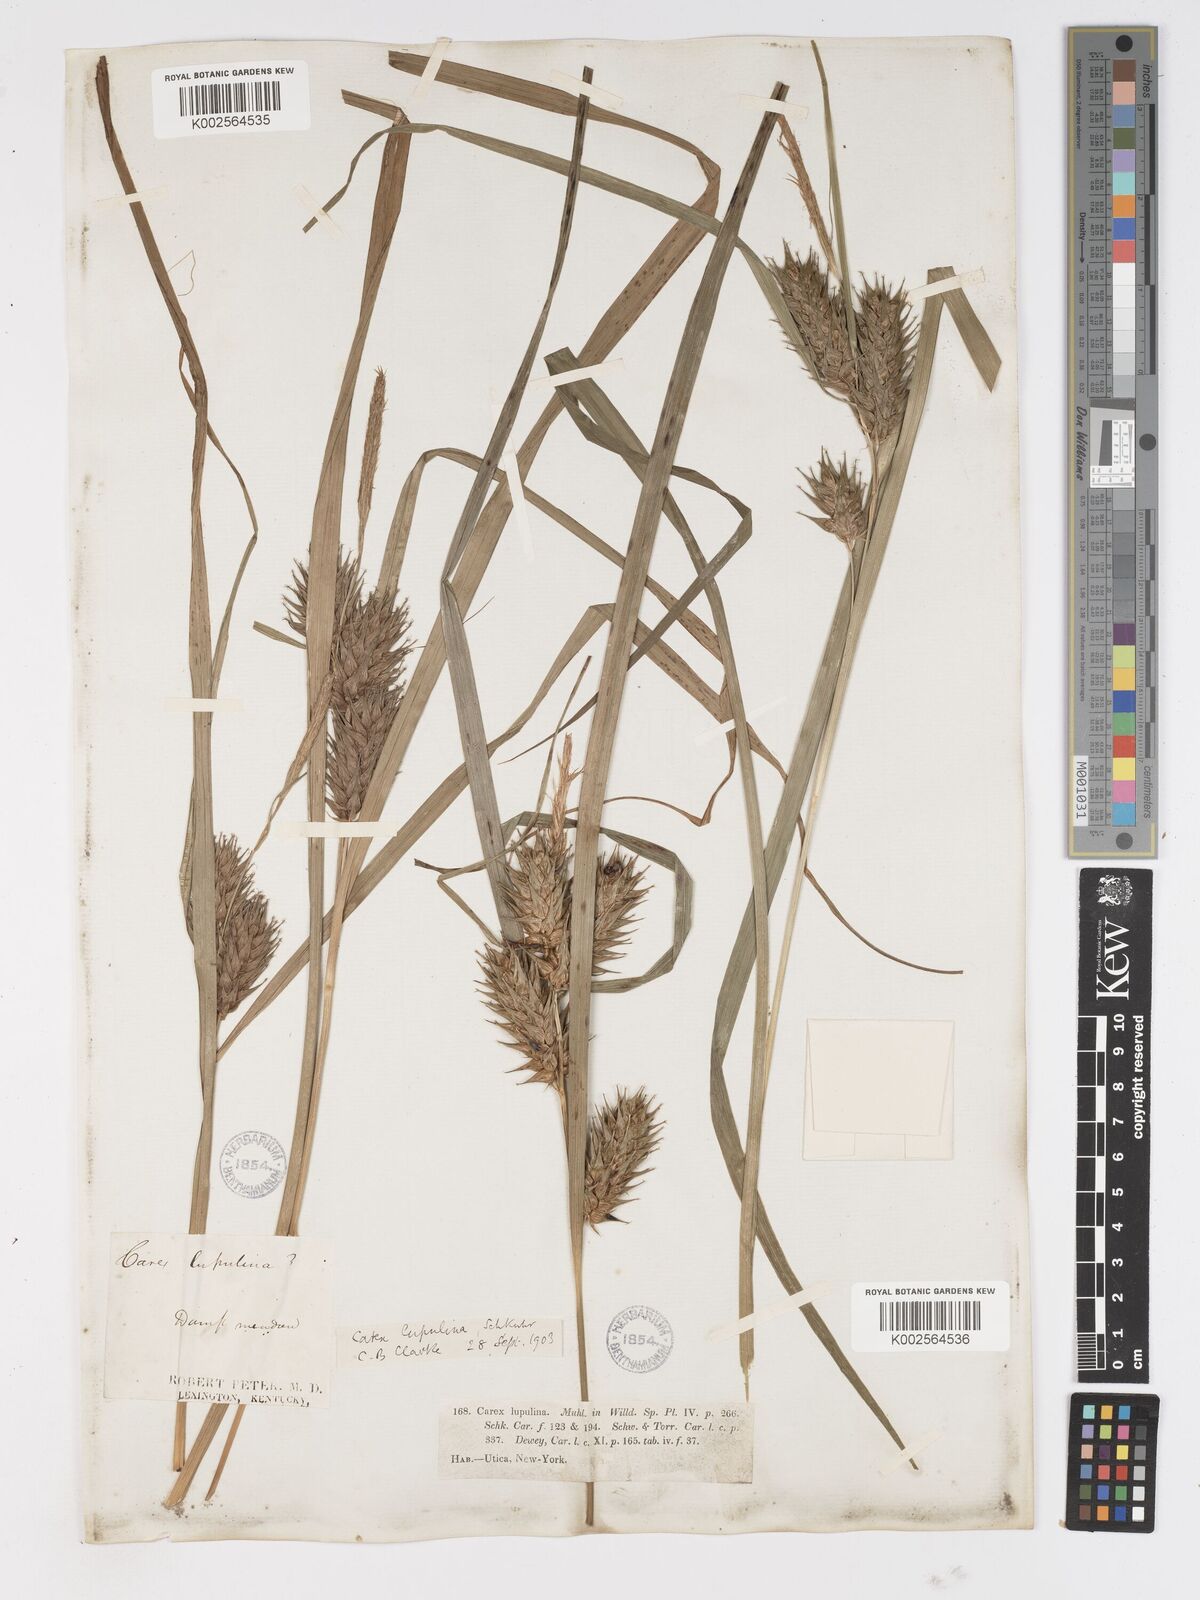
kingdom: Plantae
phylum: Tracheophyta
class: Liliopsida
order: Poales
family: Cyperaceae
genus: Carex
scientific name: Carex lupulina
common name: Hop sedge
